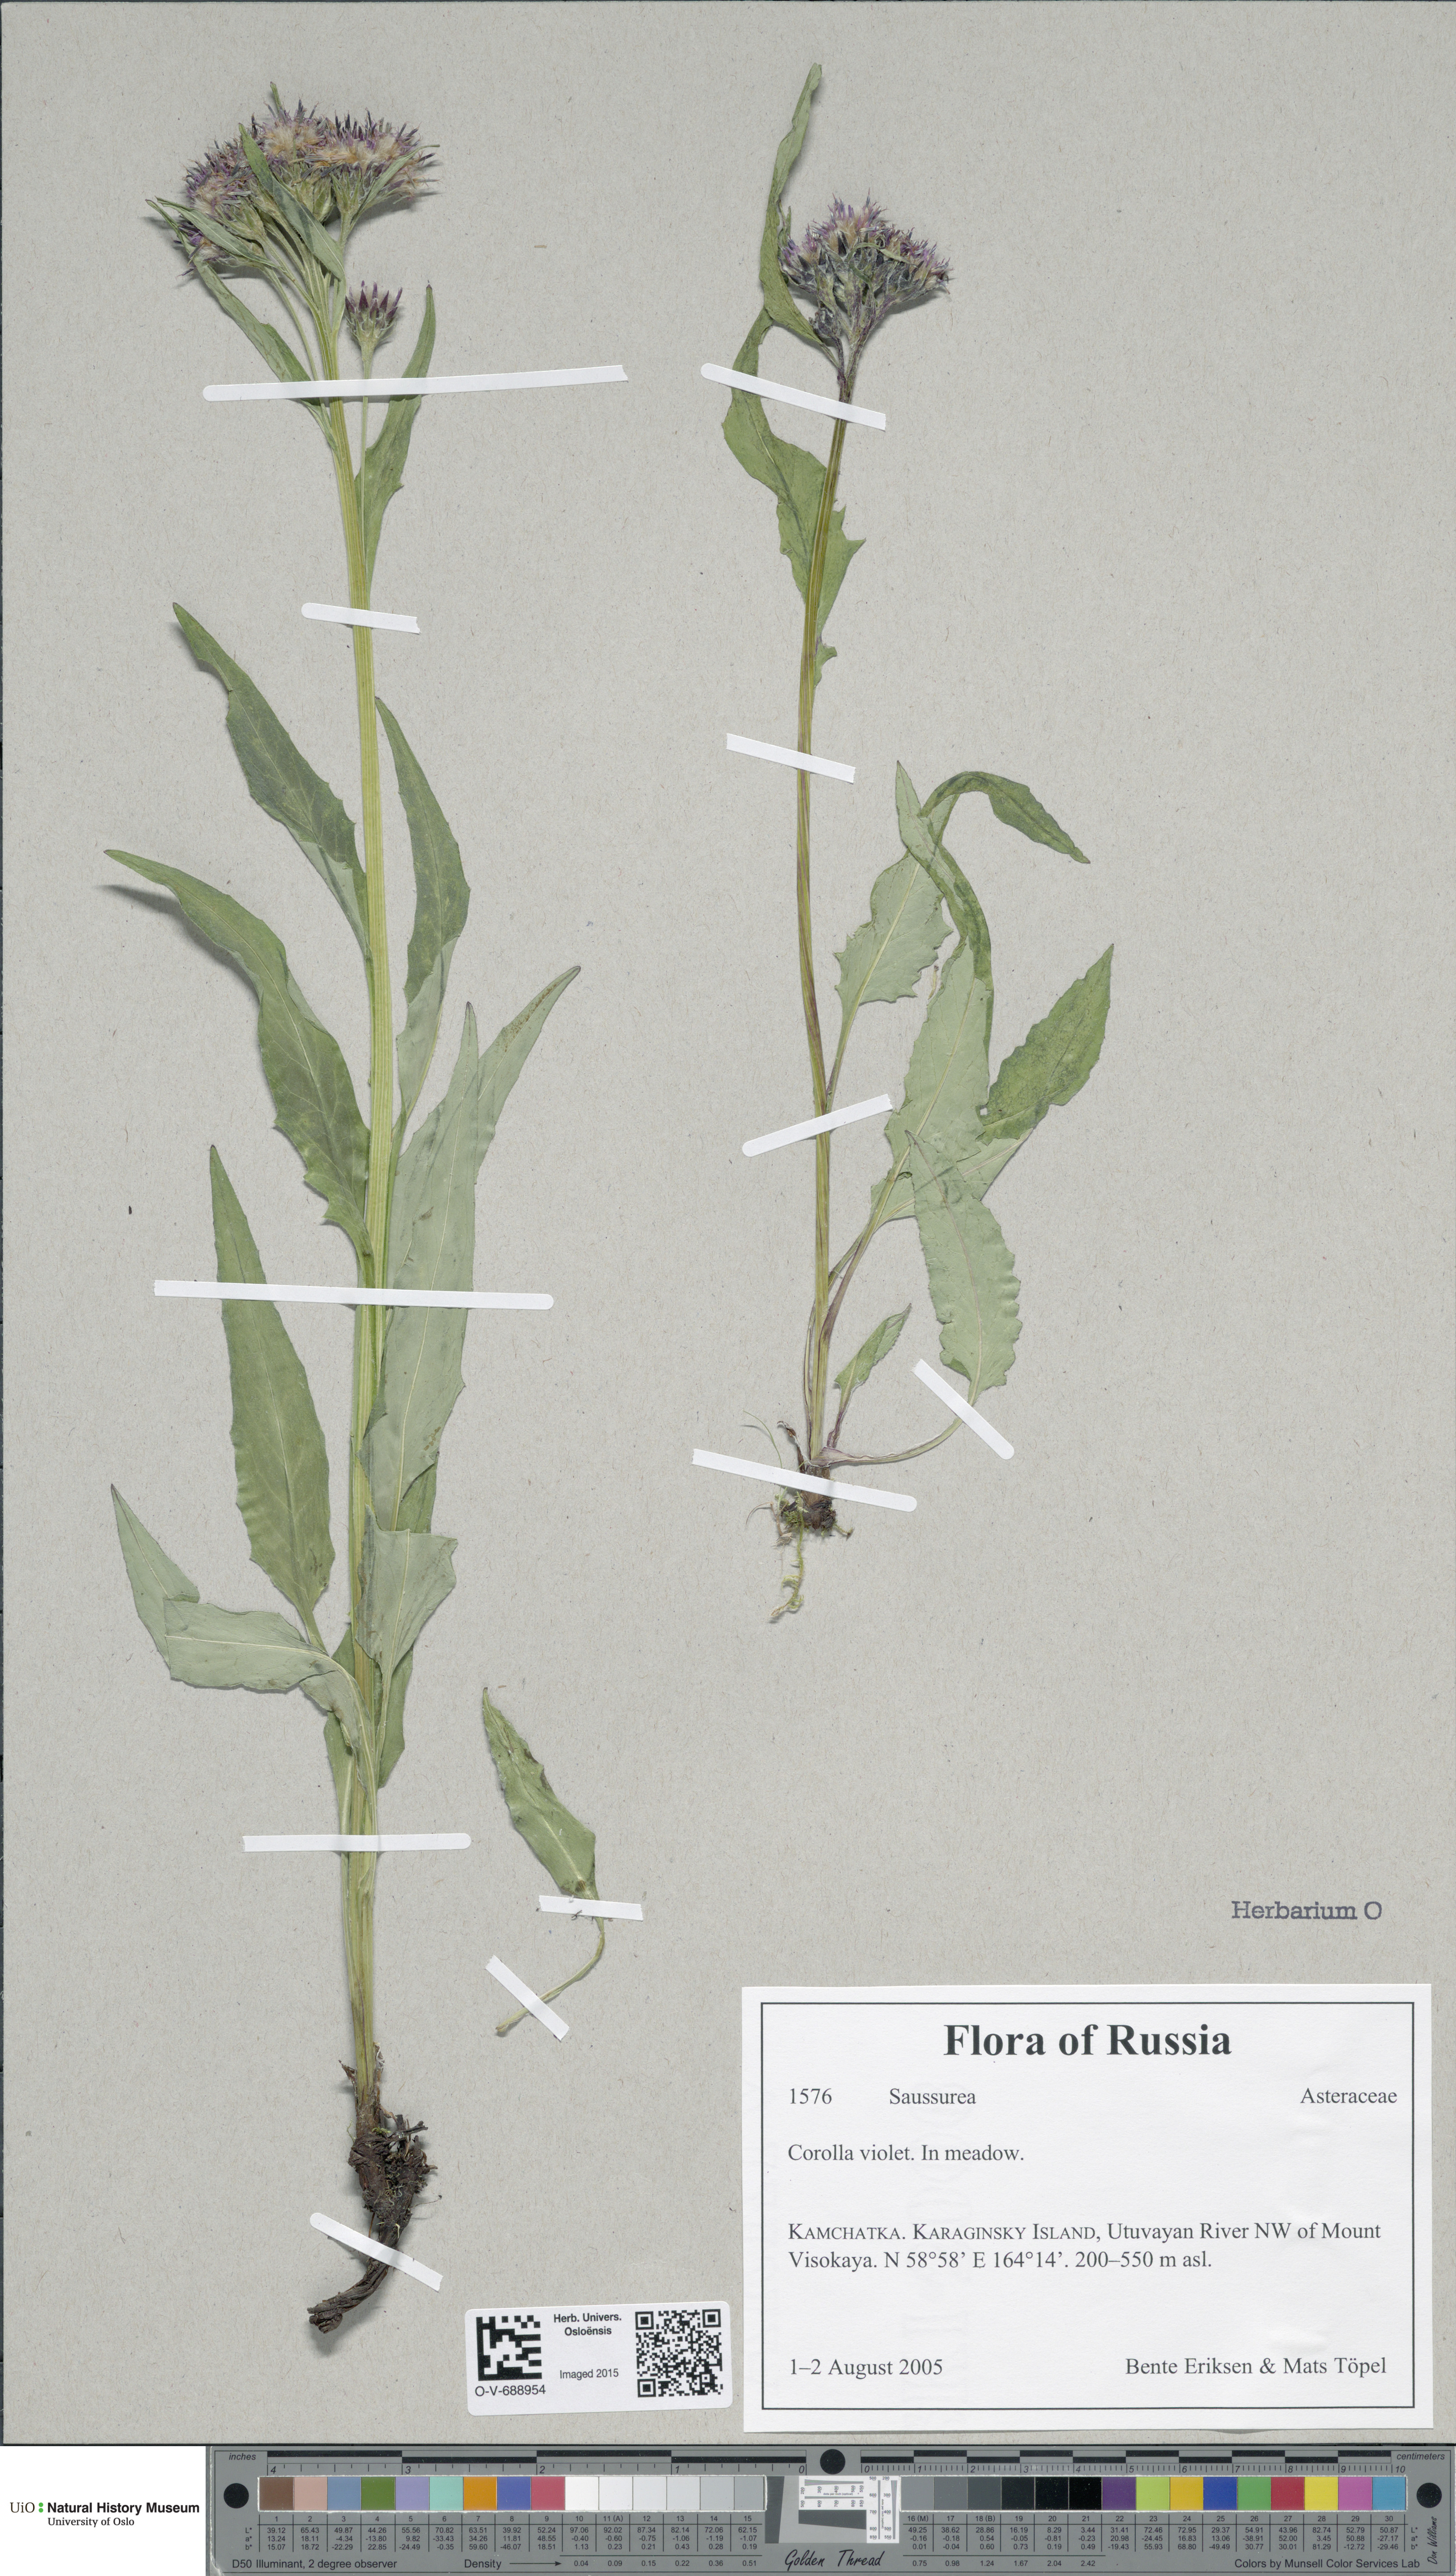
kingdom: Plantae
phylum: Tracheophyta
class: Magnoliopsida
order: Asterales
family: Asteraceae
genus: Saussurea
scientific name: Saussurea
